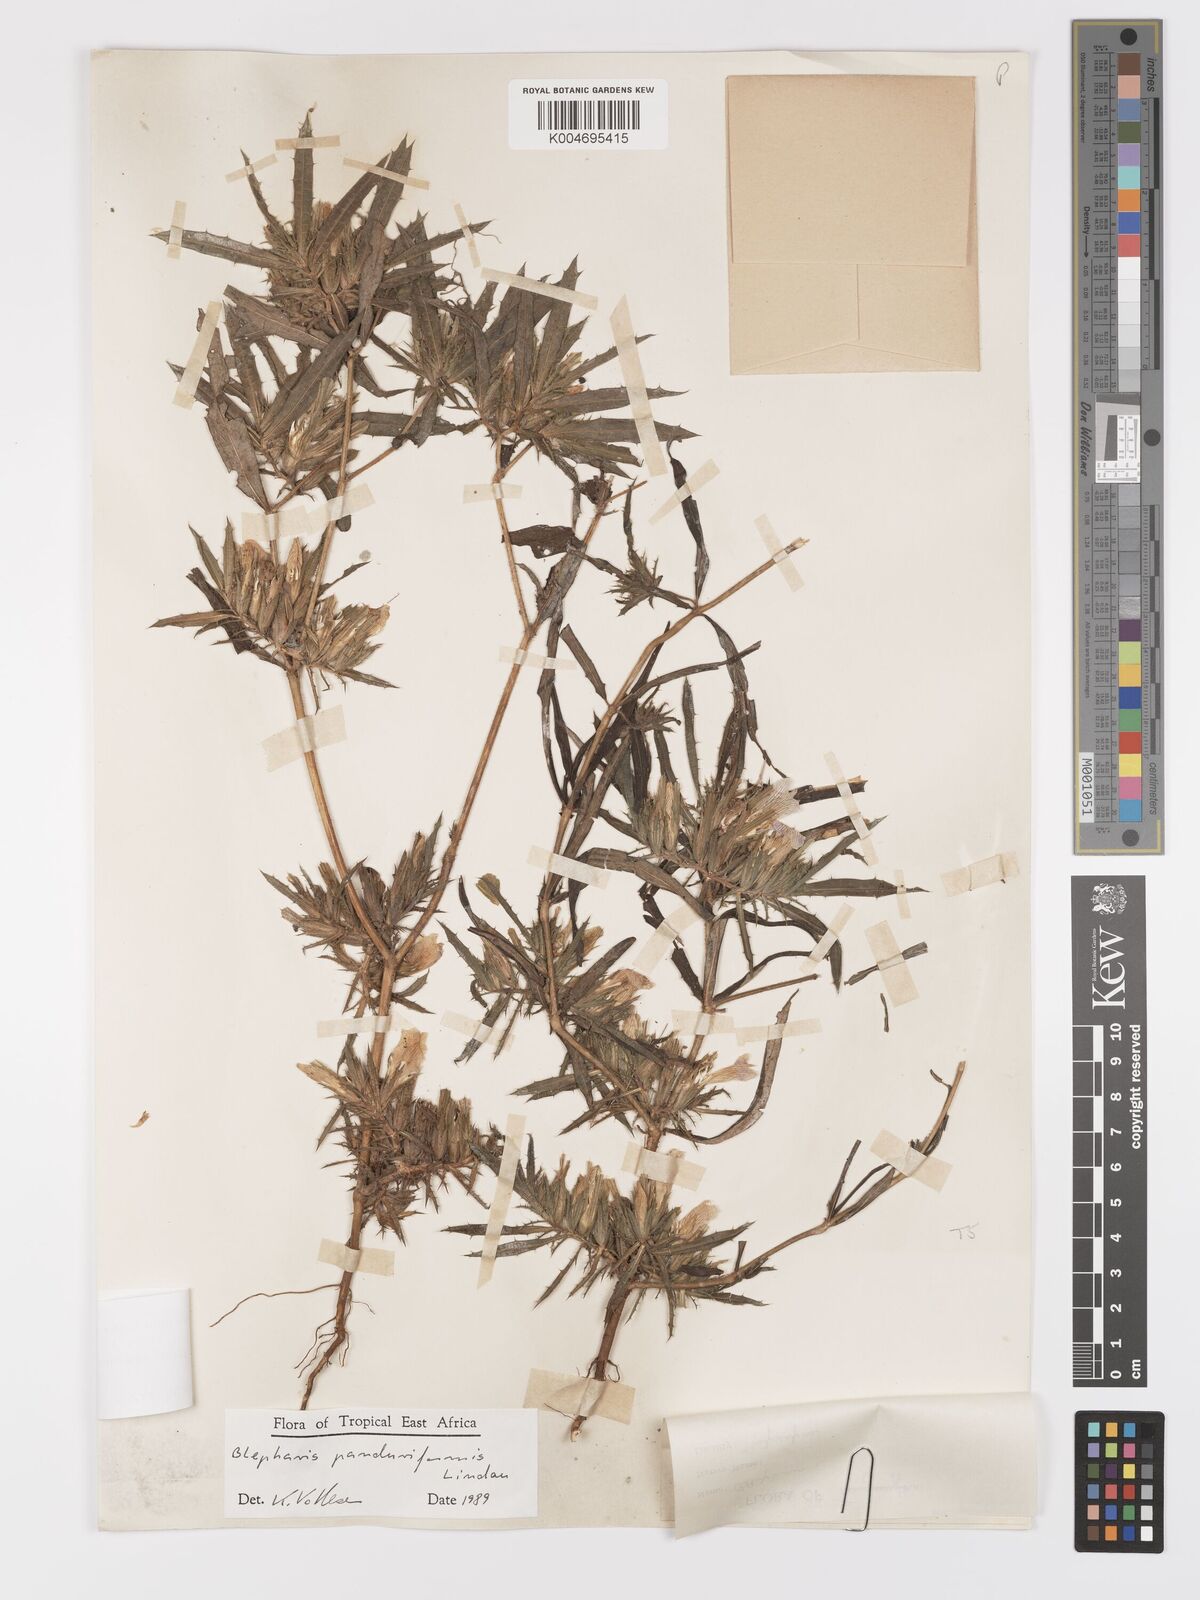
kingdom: Plantae
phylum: Tracheophyta
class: Magnoliopsida
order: Lamiales
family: Acanthaceae
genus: Blepharis
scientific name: Blepharis panduriformis
